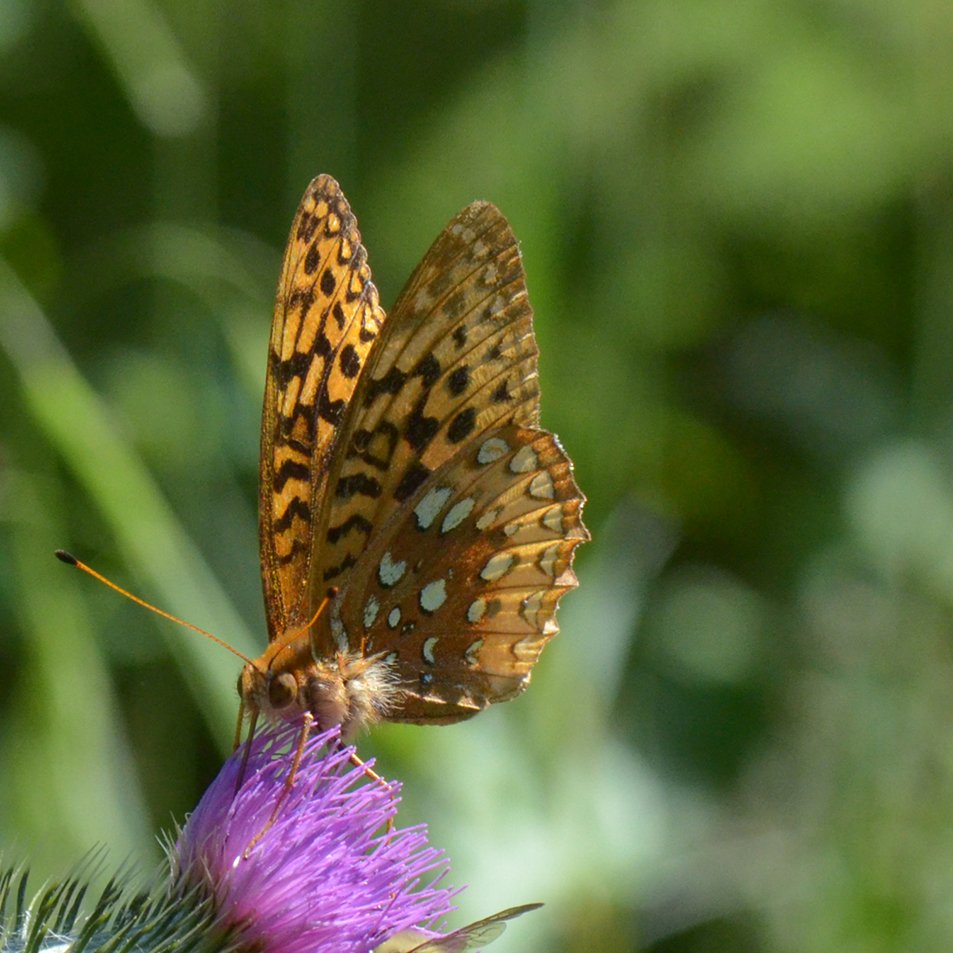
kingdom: Animalia
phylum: Arthropoda
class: Insecta
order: Lepidoptera
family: Nymphalidae
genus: Speyeria
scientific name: Speyeria cybele
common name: Great Spangled Fritillary
